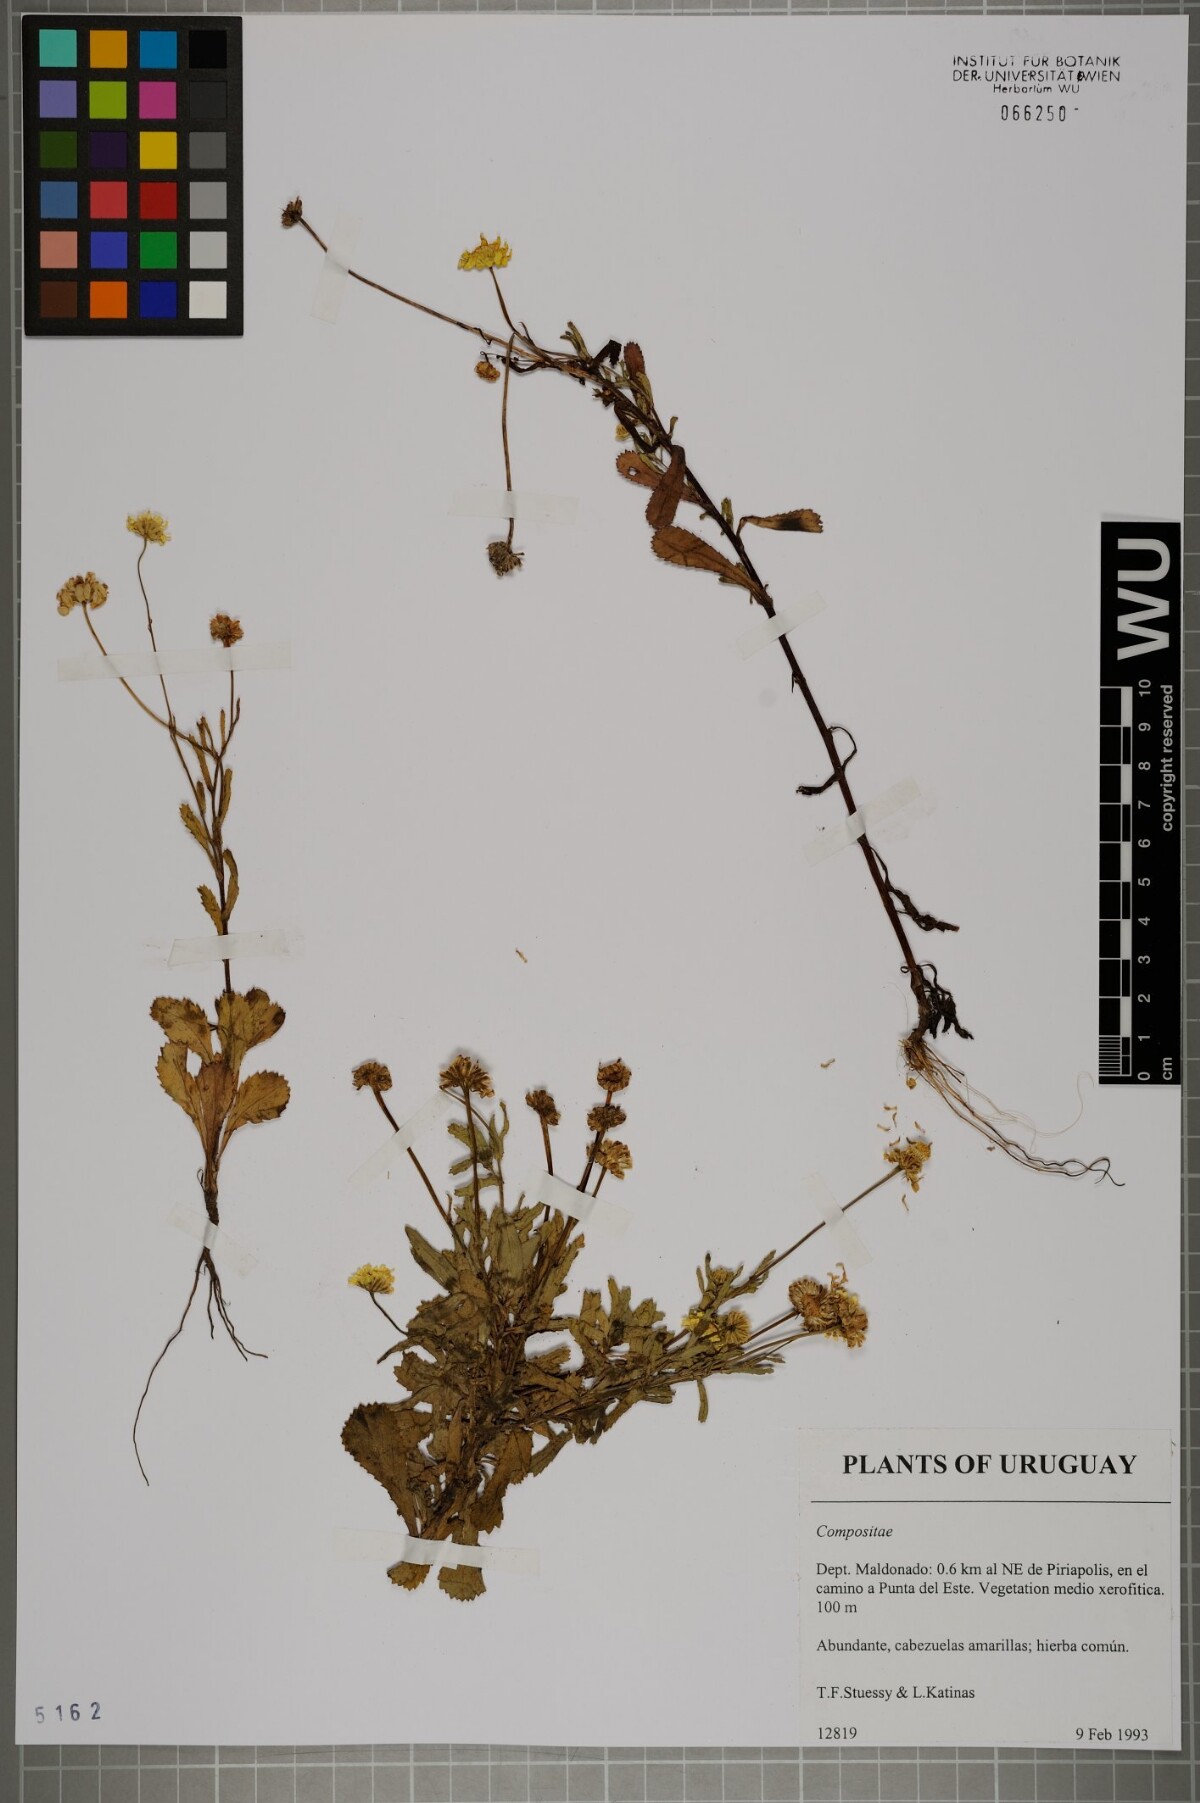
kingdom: Plantae
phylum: Tracheophyta
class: Magnoliopsida
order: Asterales
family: Asteraceae
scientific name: Asteraceae
